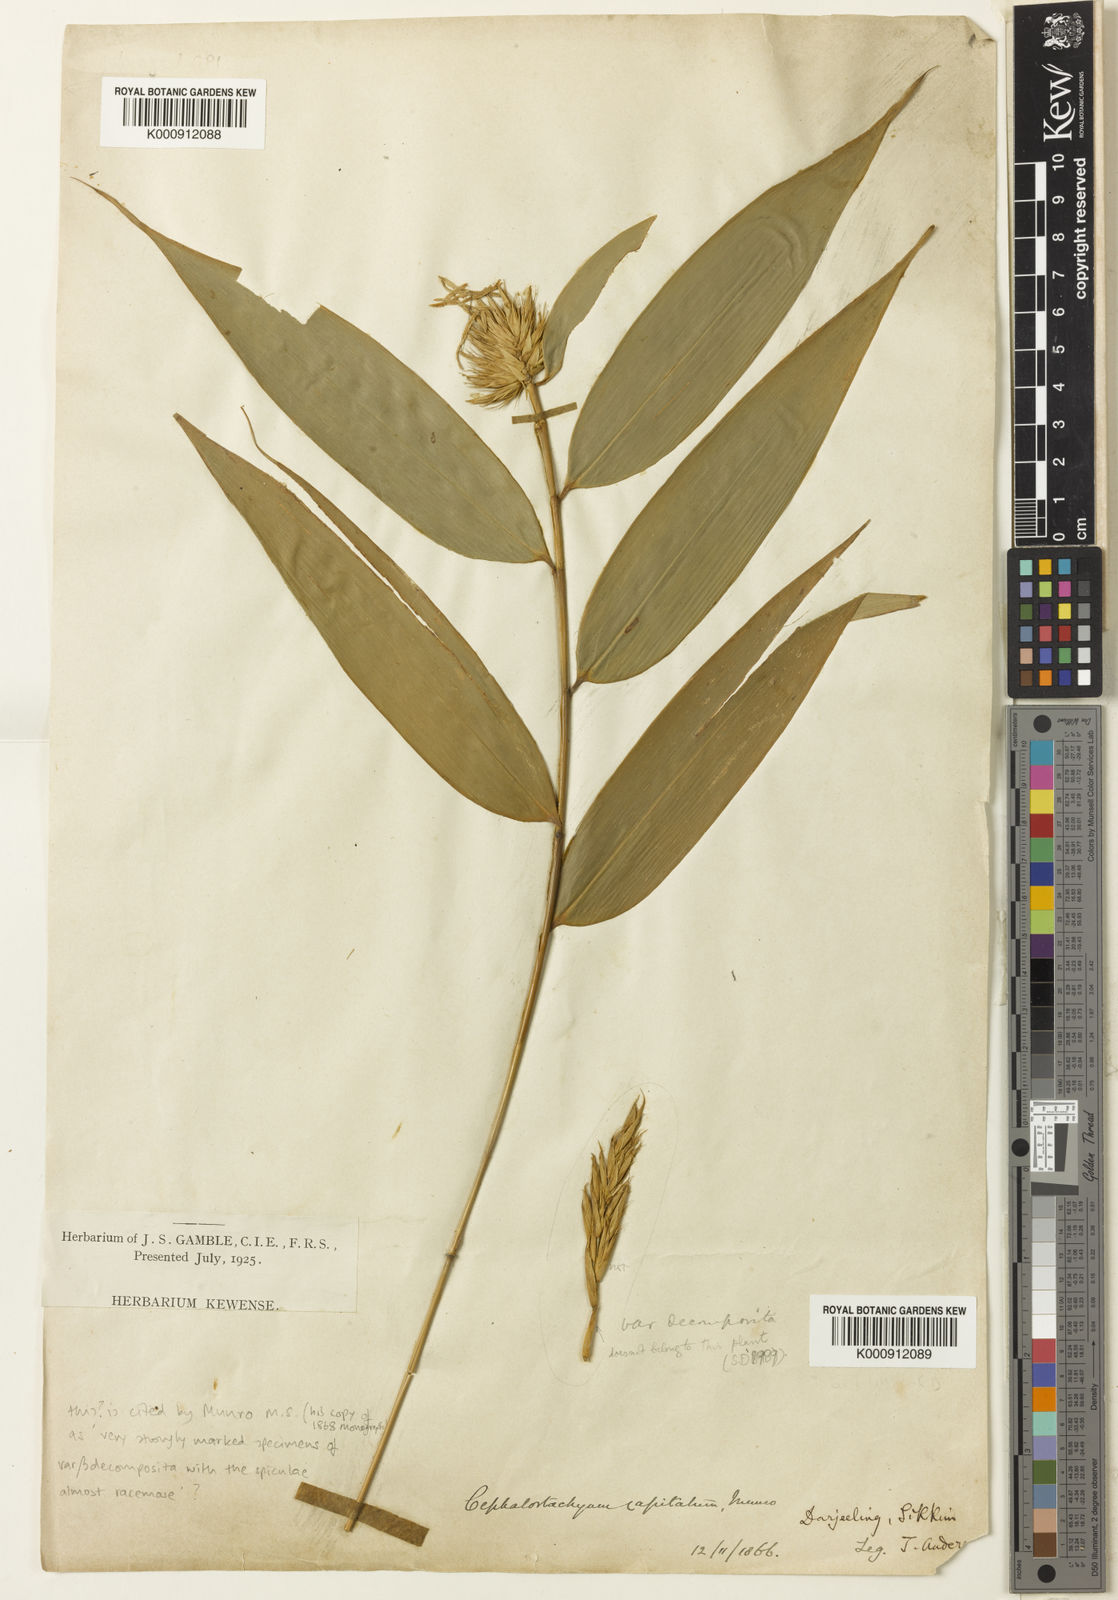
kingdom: Plantae
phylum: Tracheophyta
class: Liliopsida
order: Poales
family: Poaceae
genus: Cephalostachyum
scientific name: Cephalostachyum capitatum
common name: Hollow bamboo
